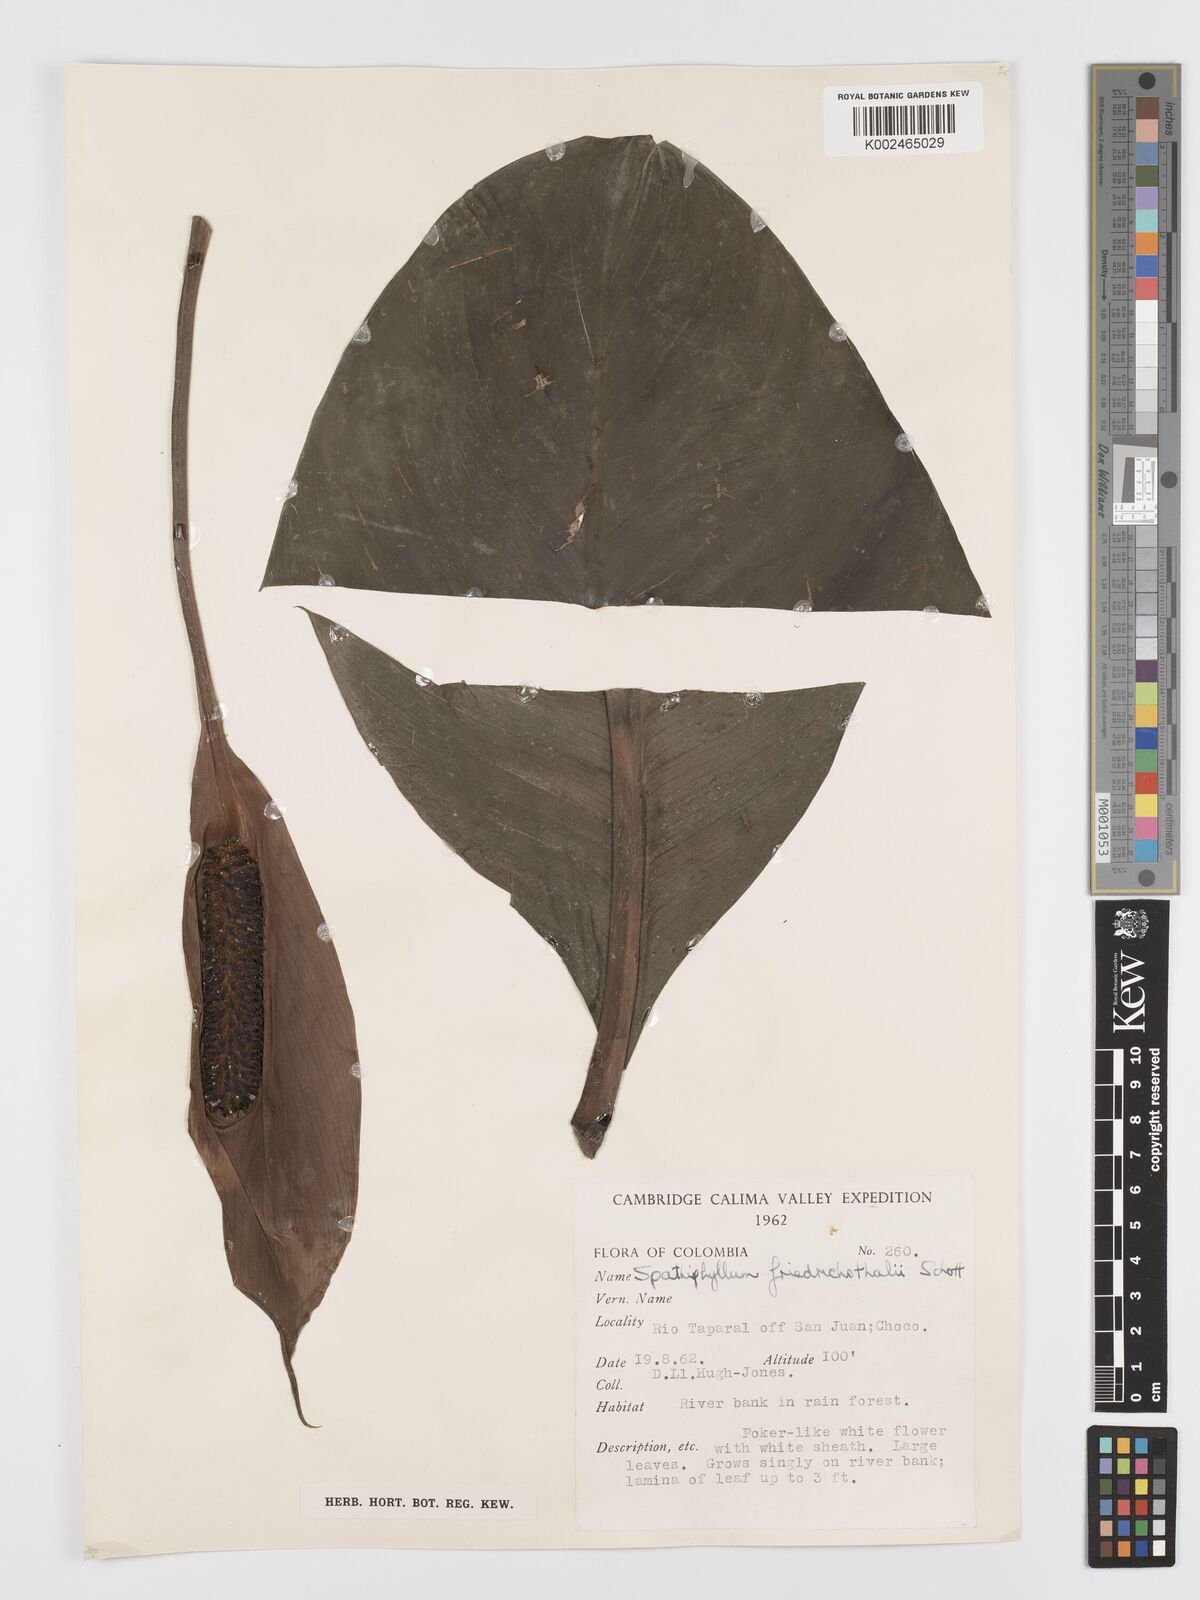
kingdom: Plantae
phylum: Tracheophyta
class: Liliopsida
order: Alismatales
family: Araceae
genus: Spathiphyllum
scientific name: Spathiphyllum friedrichsthalii
